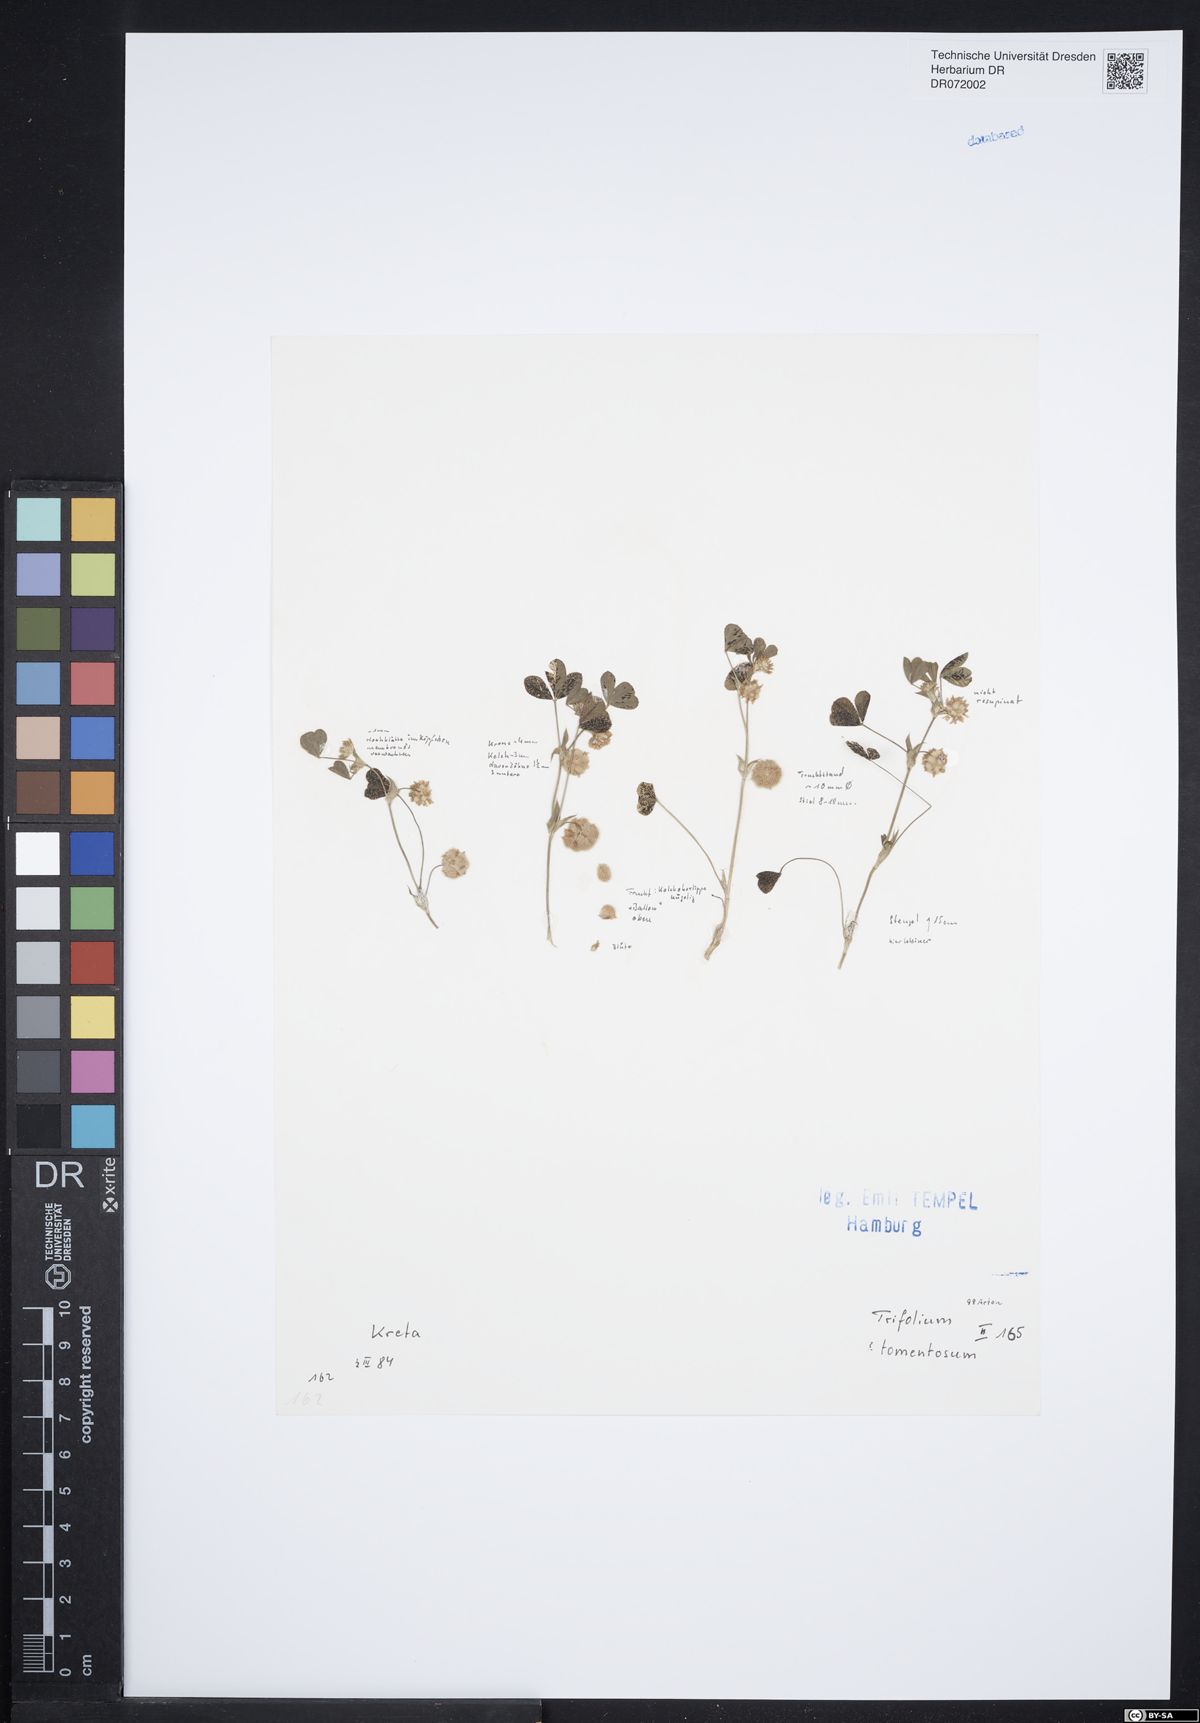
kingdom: Plantae
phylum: Tracheophyta
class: Magnoliopsida
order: Fabales
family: Fabaceae
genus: Trifolium
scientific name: Trifolium tomentosum
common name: Woolly clover
